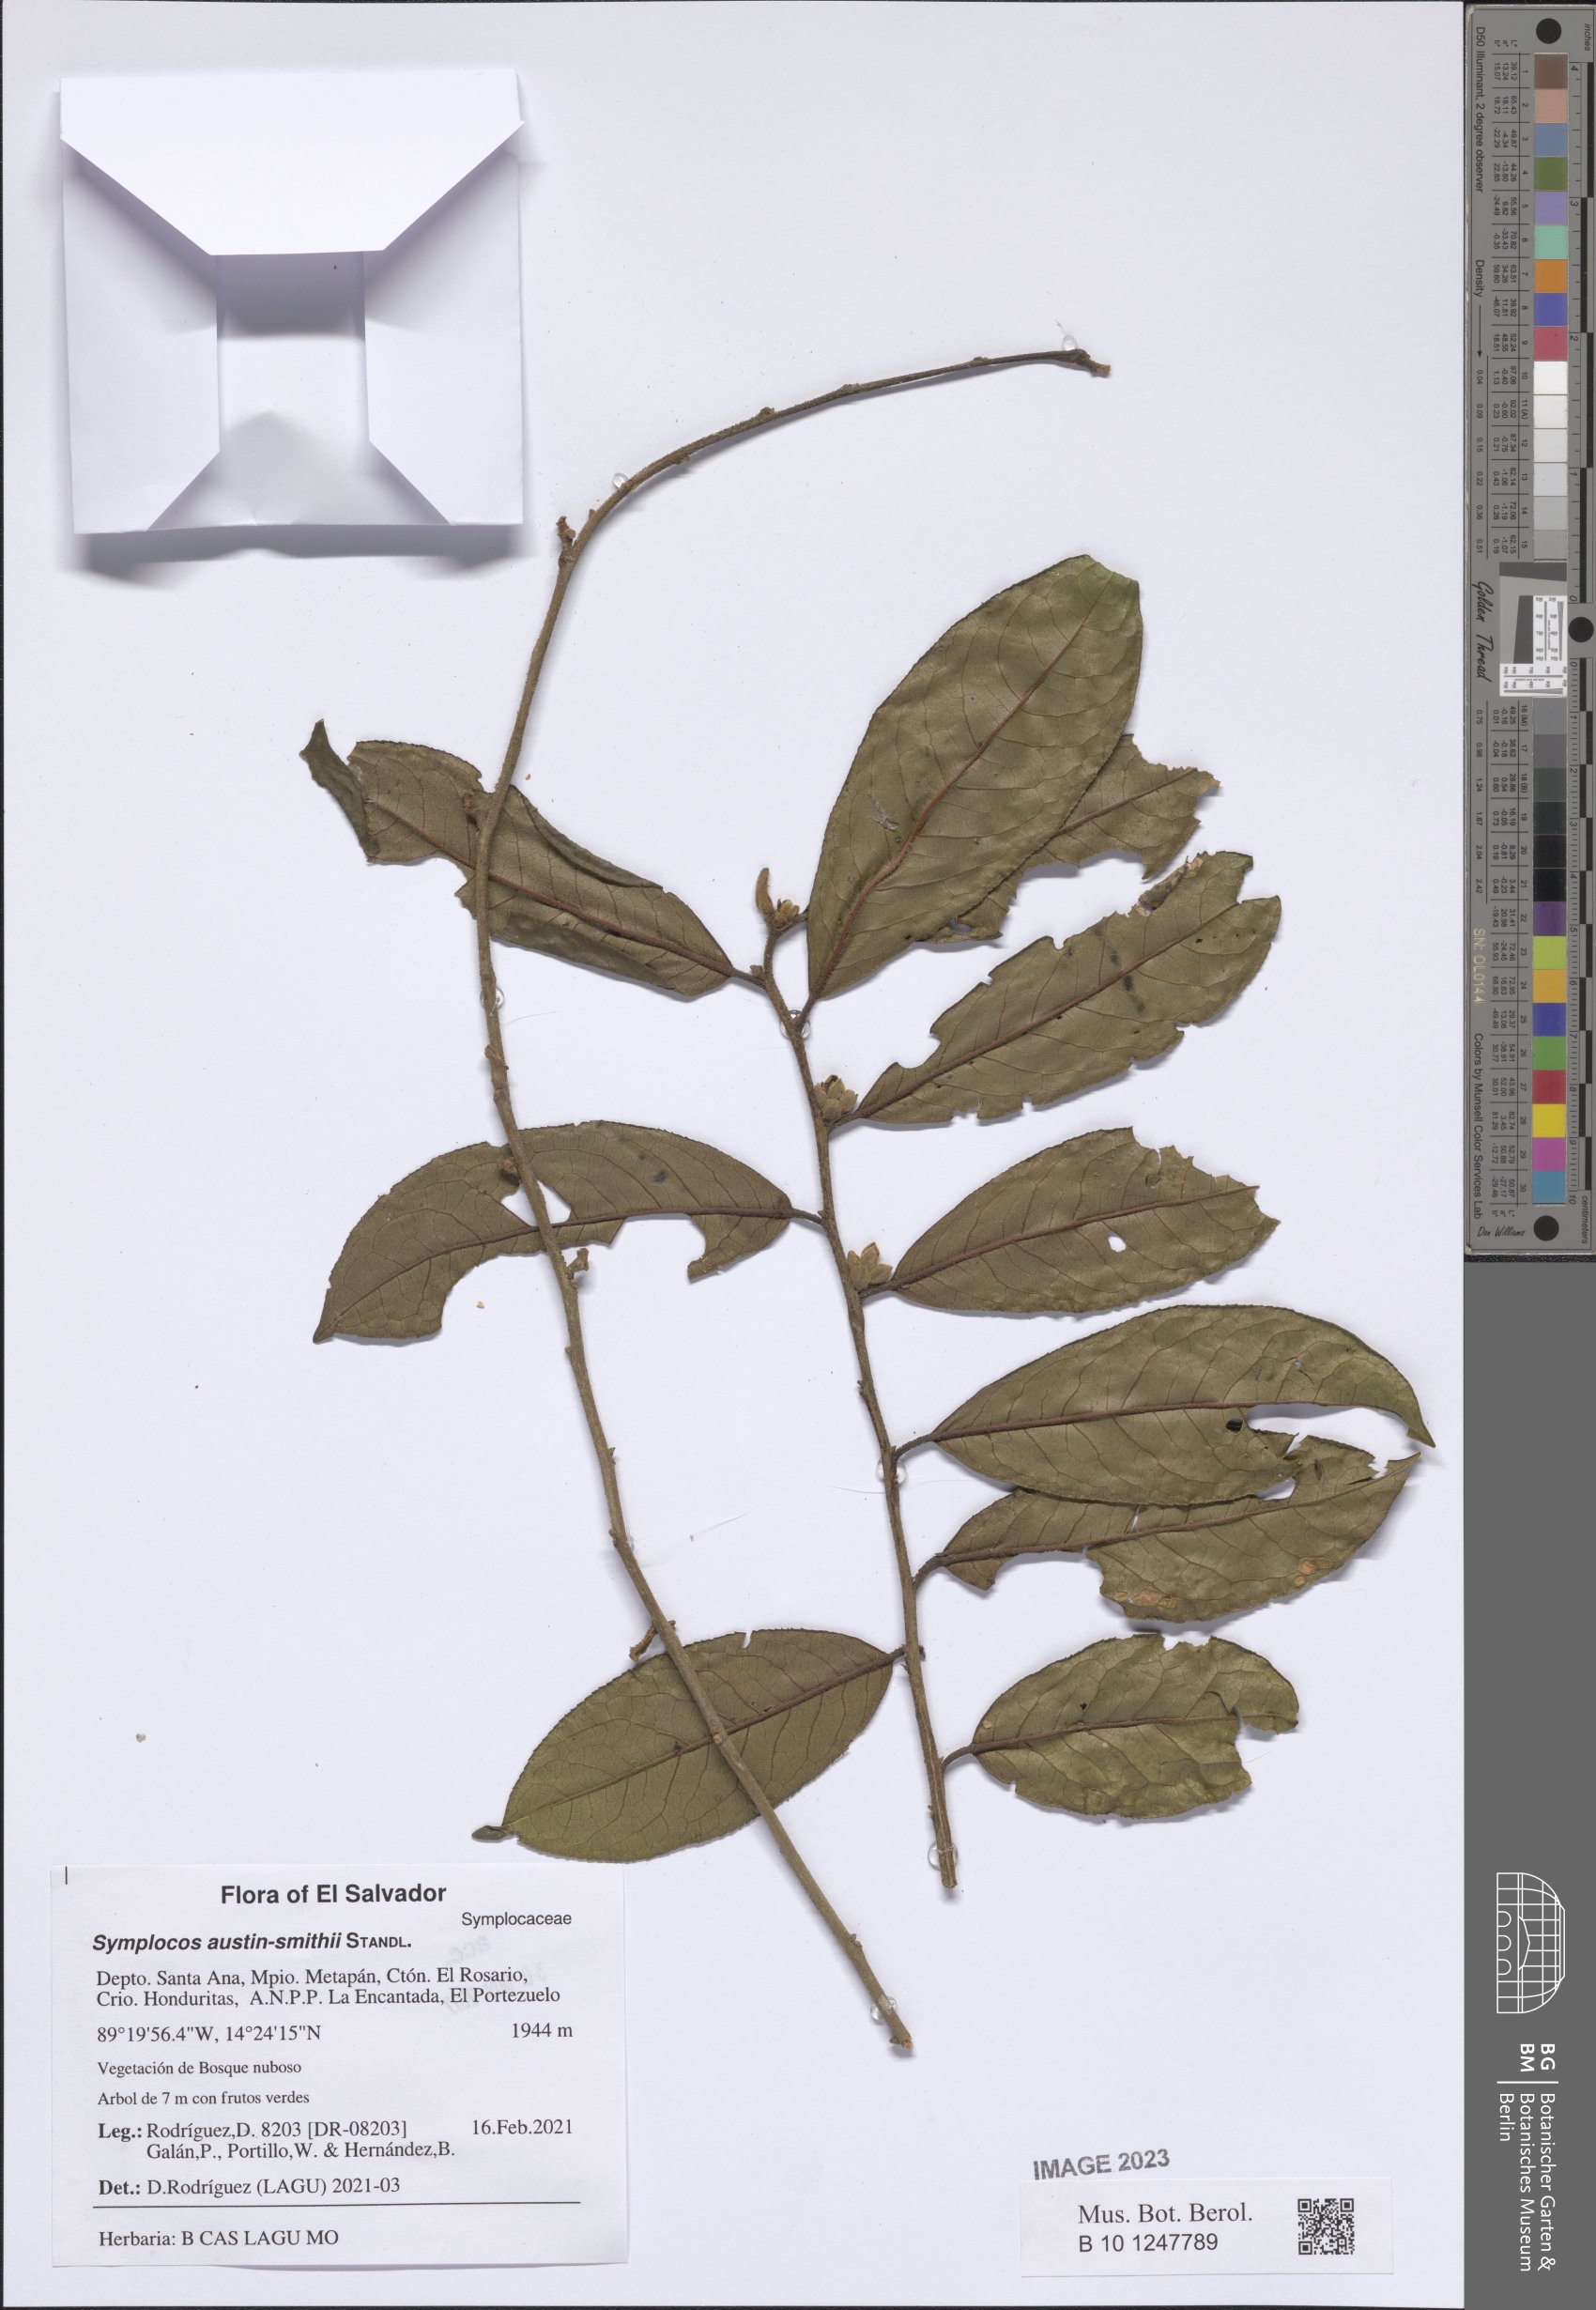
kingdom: Plantae
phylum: Tracheophyta
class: Magnoliopsida
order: Ericales
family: Symplocaceae
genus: Symplocos
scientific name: Symplocos austin-smithii
